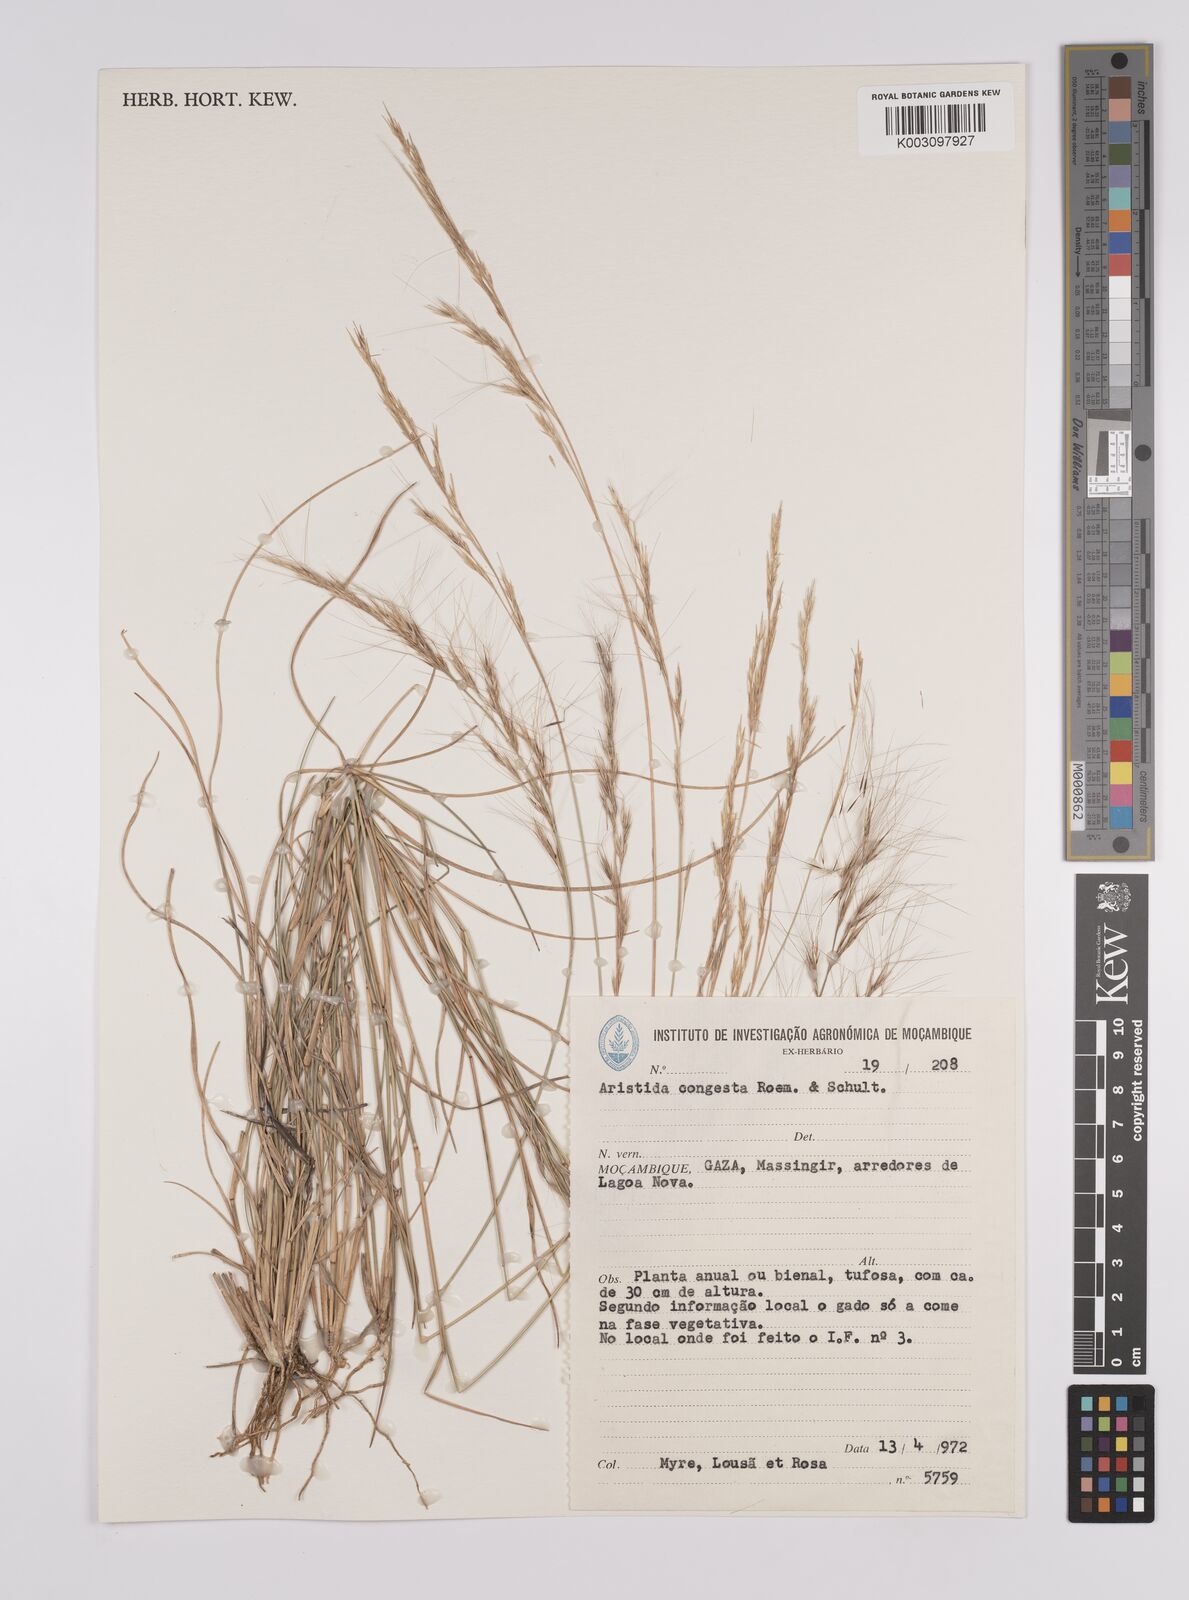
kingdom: Plantae
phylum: Tracheophyta
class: Liliopsida
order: Poales
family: Poaceae
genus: Aristida
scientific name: Aristida congesta
